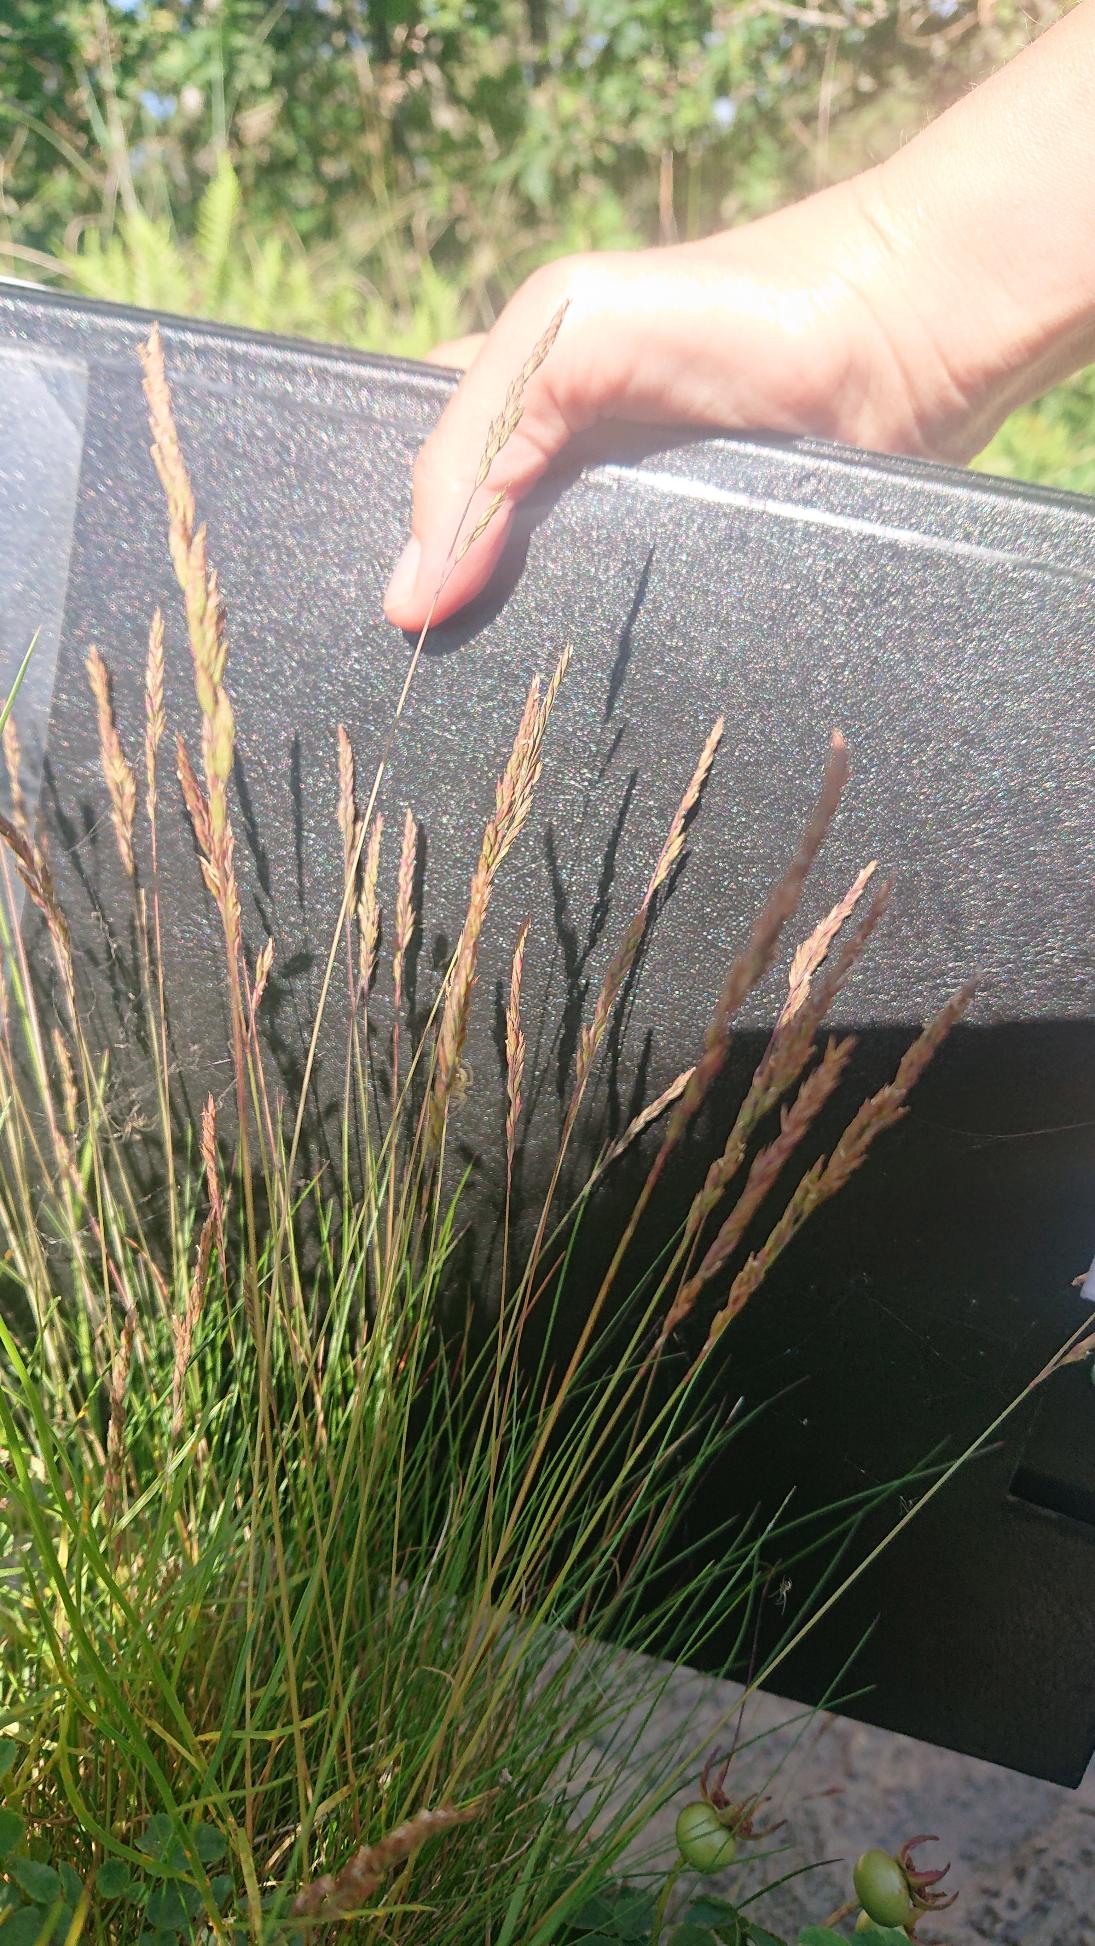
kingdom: Plantae
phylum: Tracheophyta
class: Liliopsida
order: Poales
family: Poaceae
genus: Festuca
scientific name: Festuca ovina
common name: Fåre-svingel
